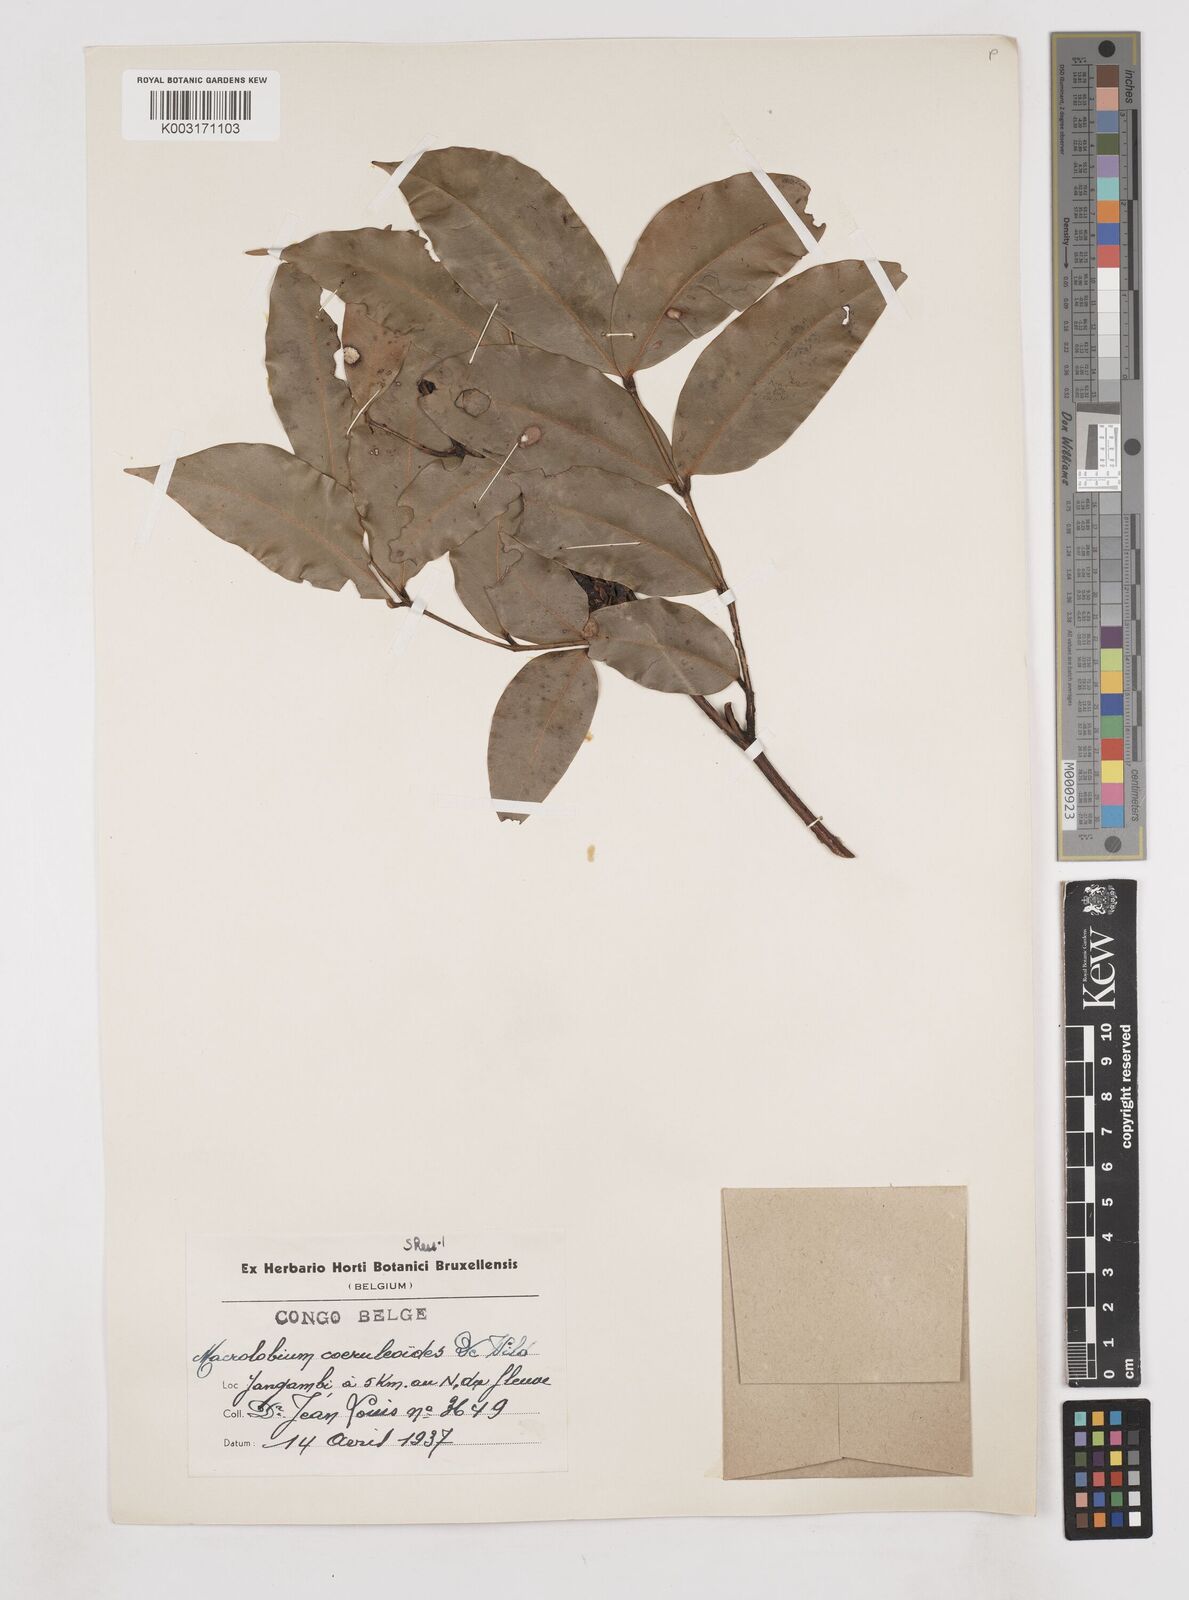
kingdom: Plantae
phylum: Tracheophyta
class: Magnoliopsida
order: Fabales
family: Fabaceae
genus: Paramacrolobium
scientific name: Paramacrolobium coeruleum
